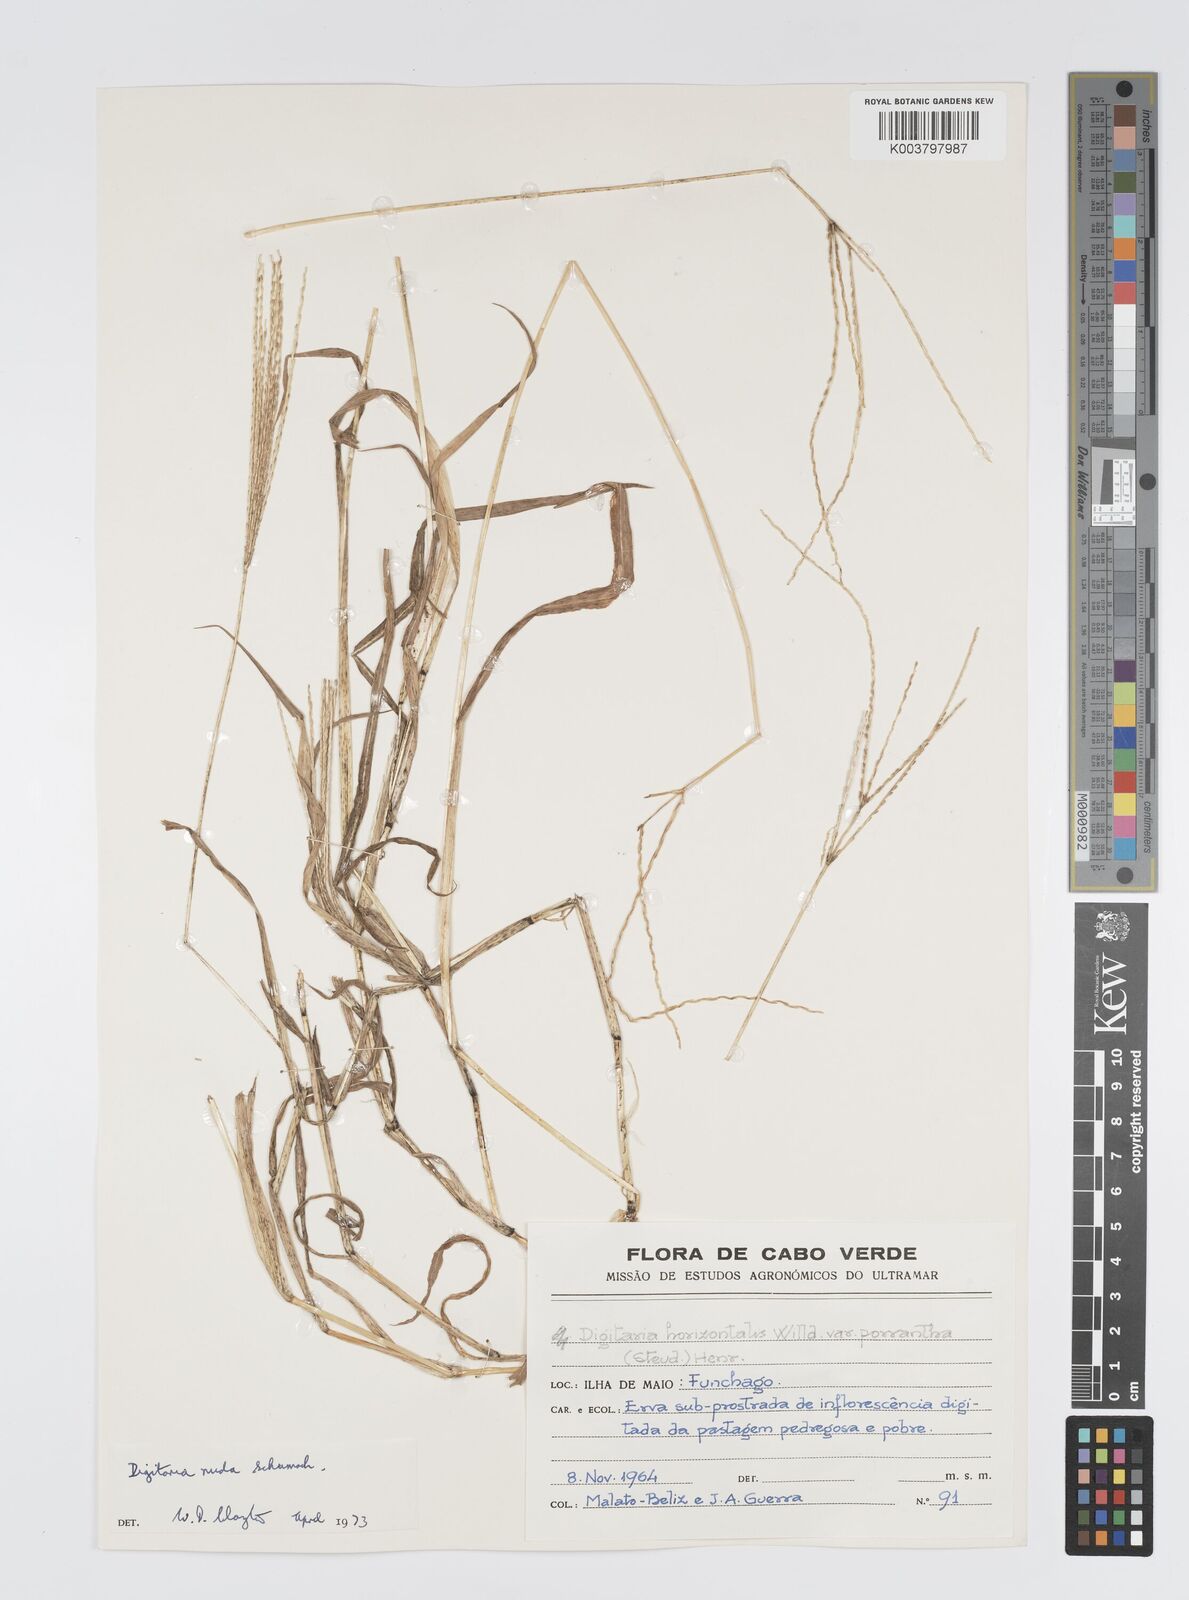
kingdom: Plantae
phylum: Tracheophyta
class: Liliopsida
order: Poales
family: Poaceae
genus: Digitaria
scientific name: Digitaria nuda
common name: Naked crabgrass
